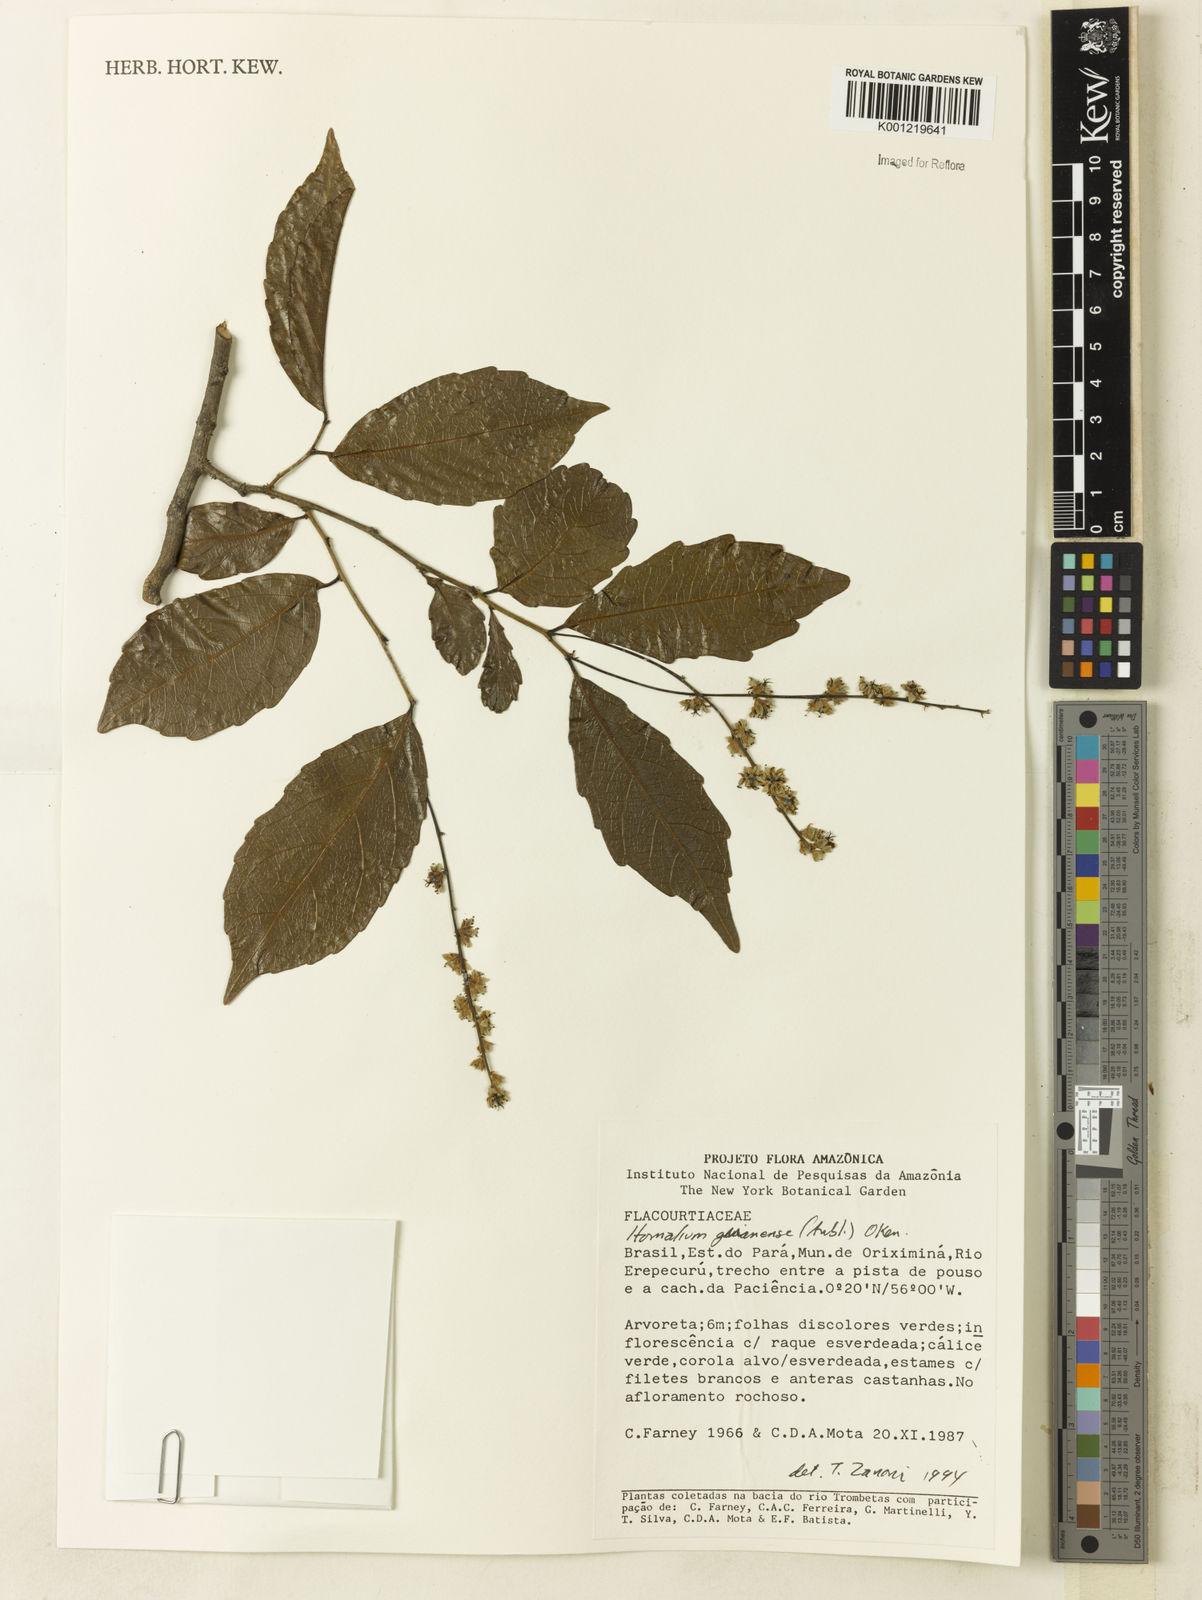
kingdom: Plantae
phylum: Tracheophyta
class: Magnoliopsida
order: Malpighiales
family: Salicaceae
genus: Homalium
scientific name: Homalium guianense
